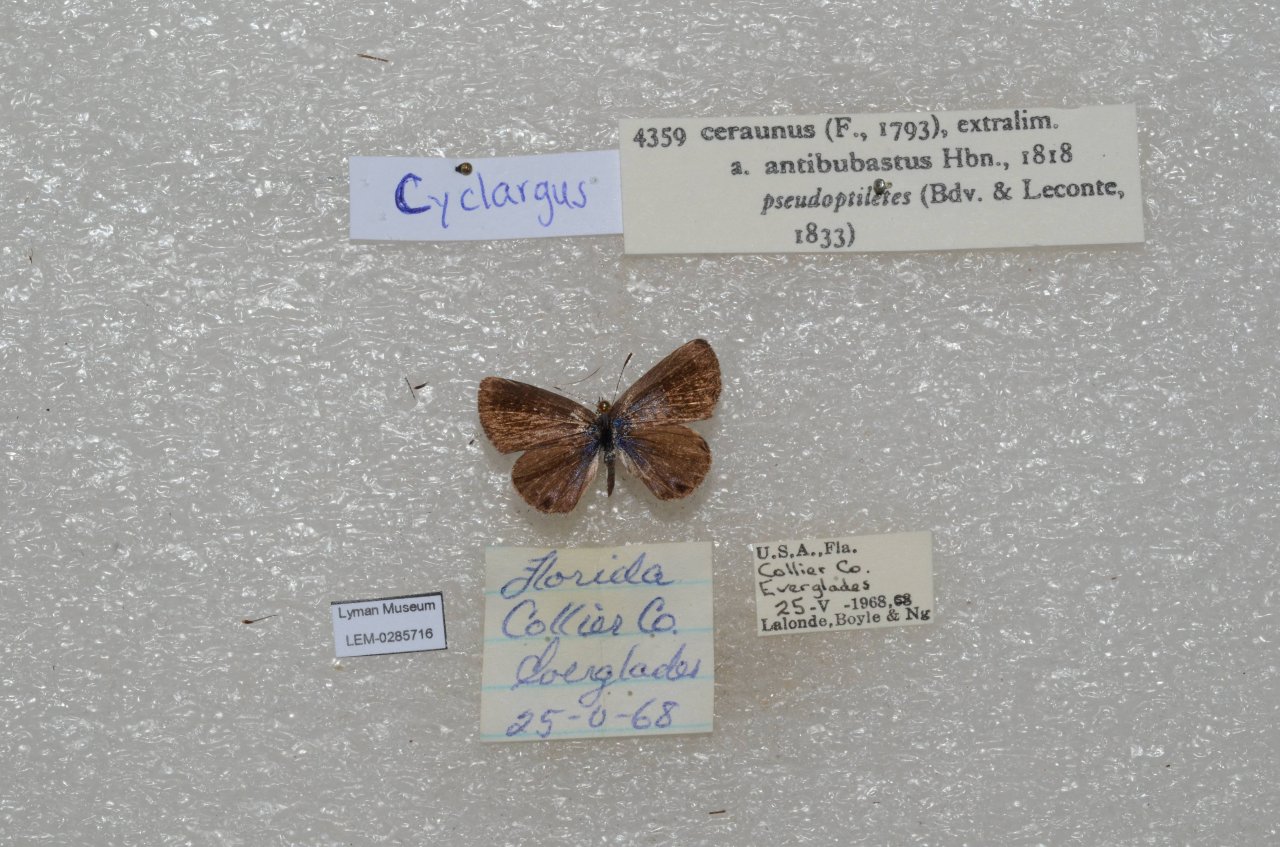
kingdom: Animalia
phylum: Arthropoda
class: Insecta
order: Lepidoptera
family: Lycaenidae
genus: Hemiargus
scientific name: Hemiargus ceraunus
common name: Ceraunus Blue
